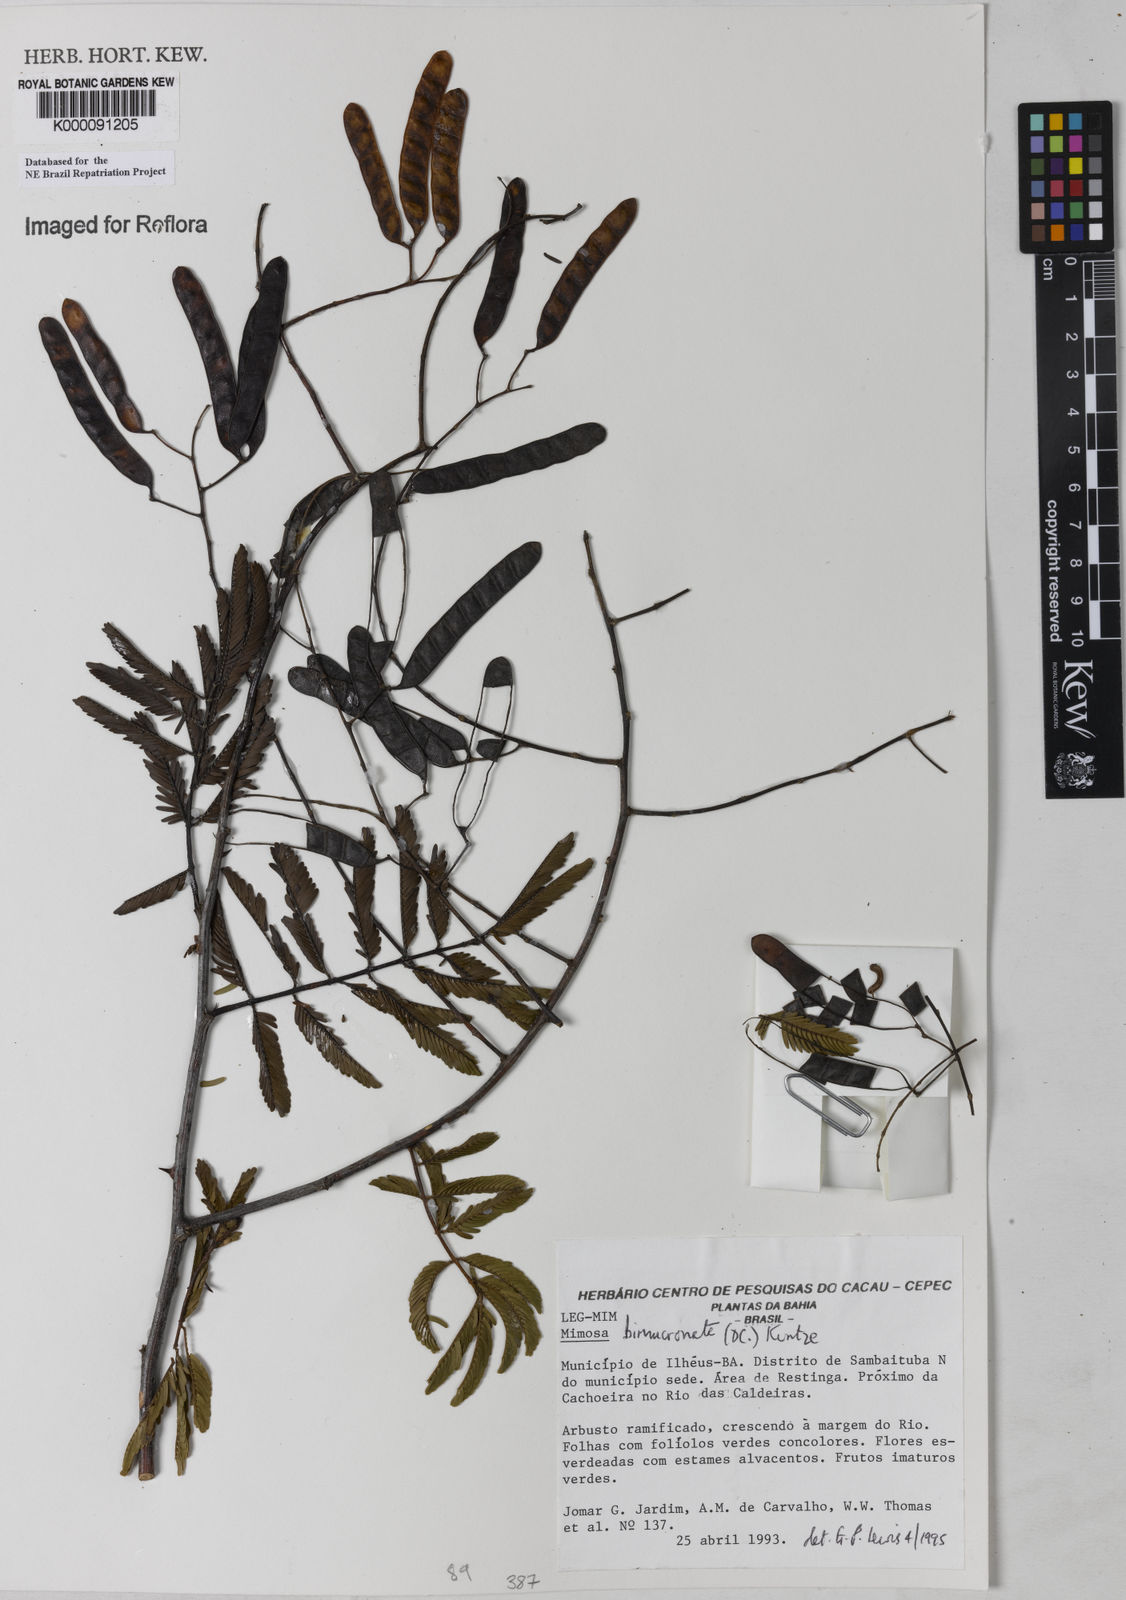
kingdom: Plantae
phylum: Tracheophyta
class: Magnoliopsida
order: Fabales
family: Fabaceae
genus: Mimosa
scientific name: Mimosa
